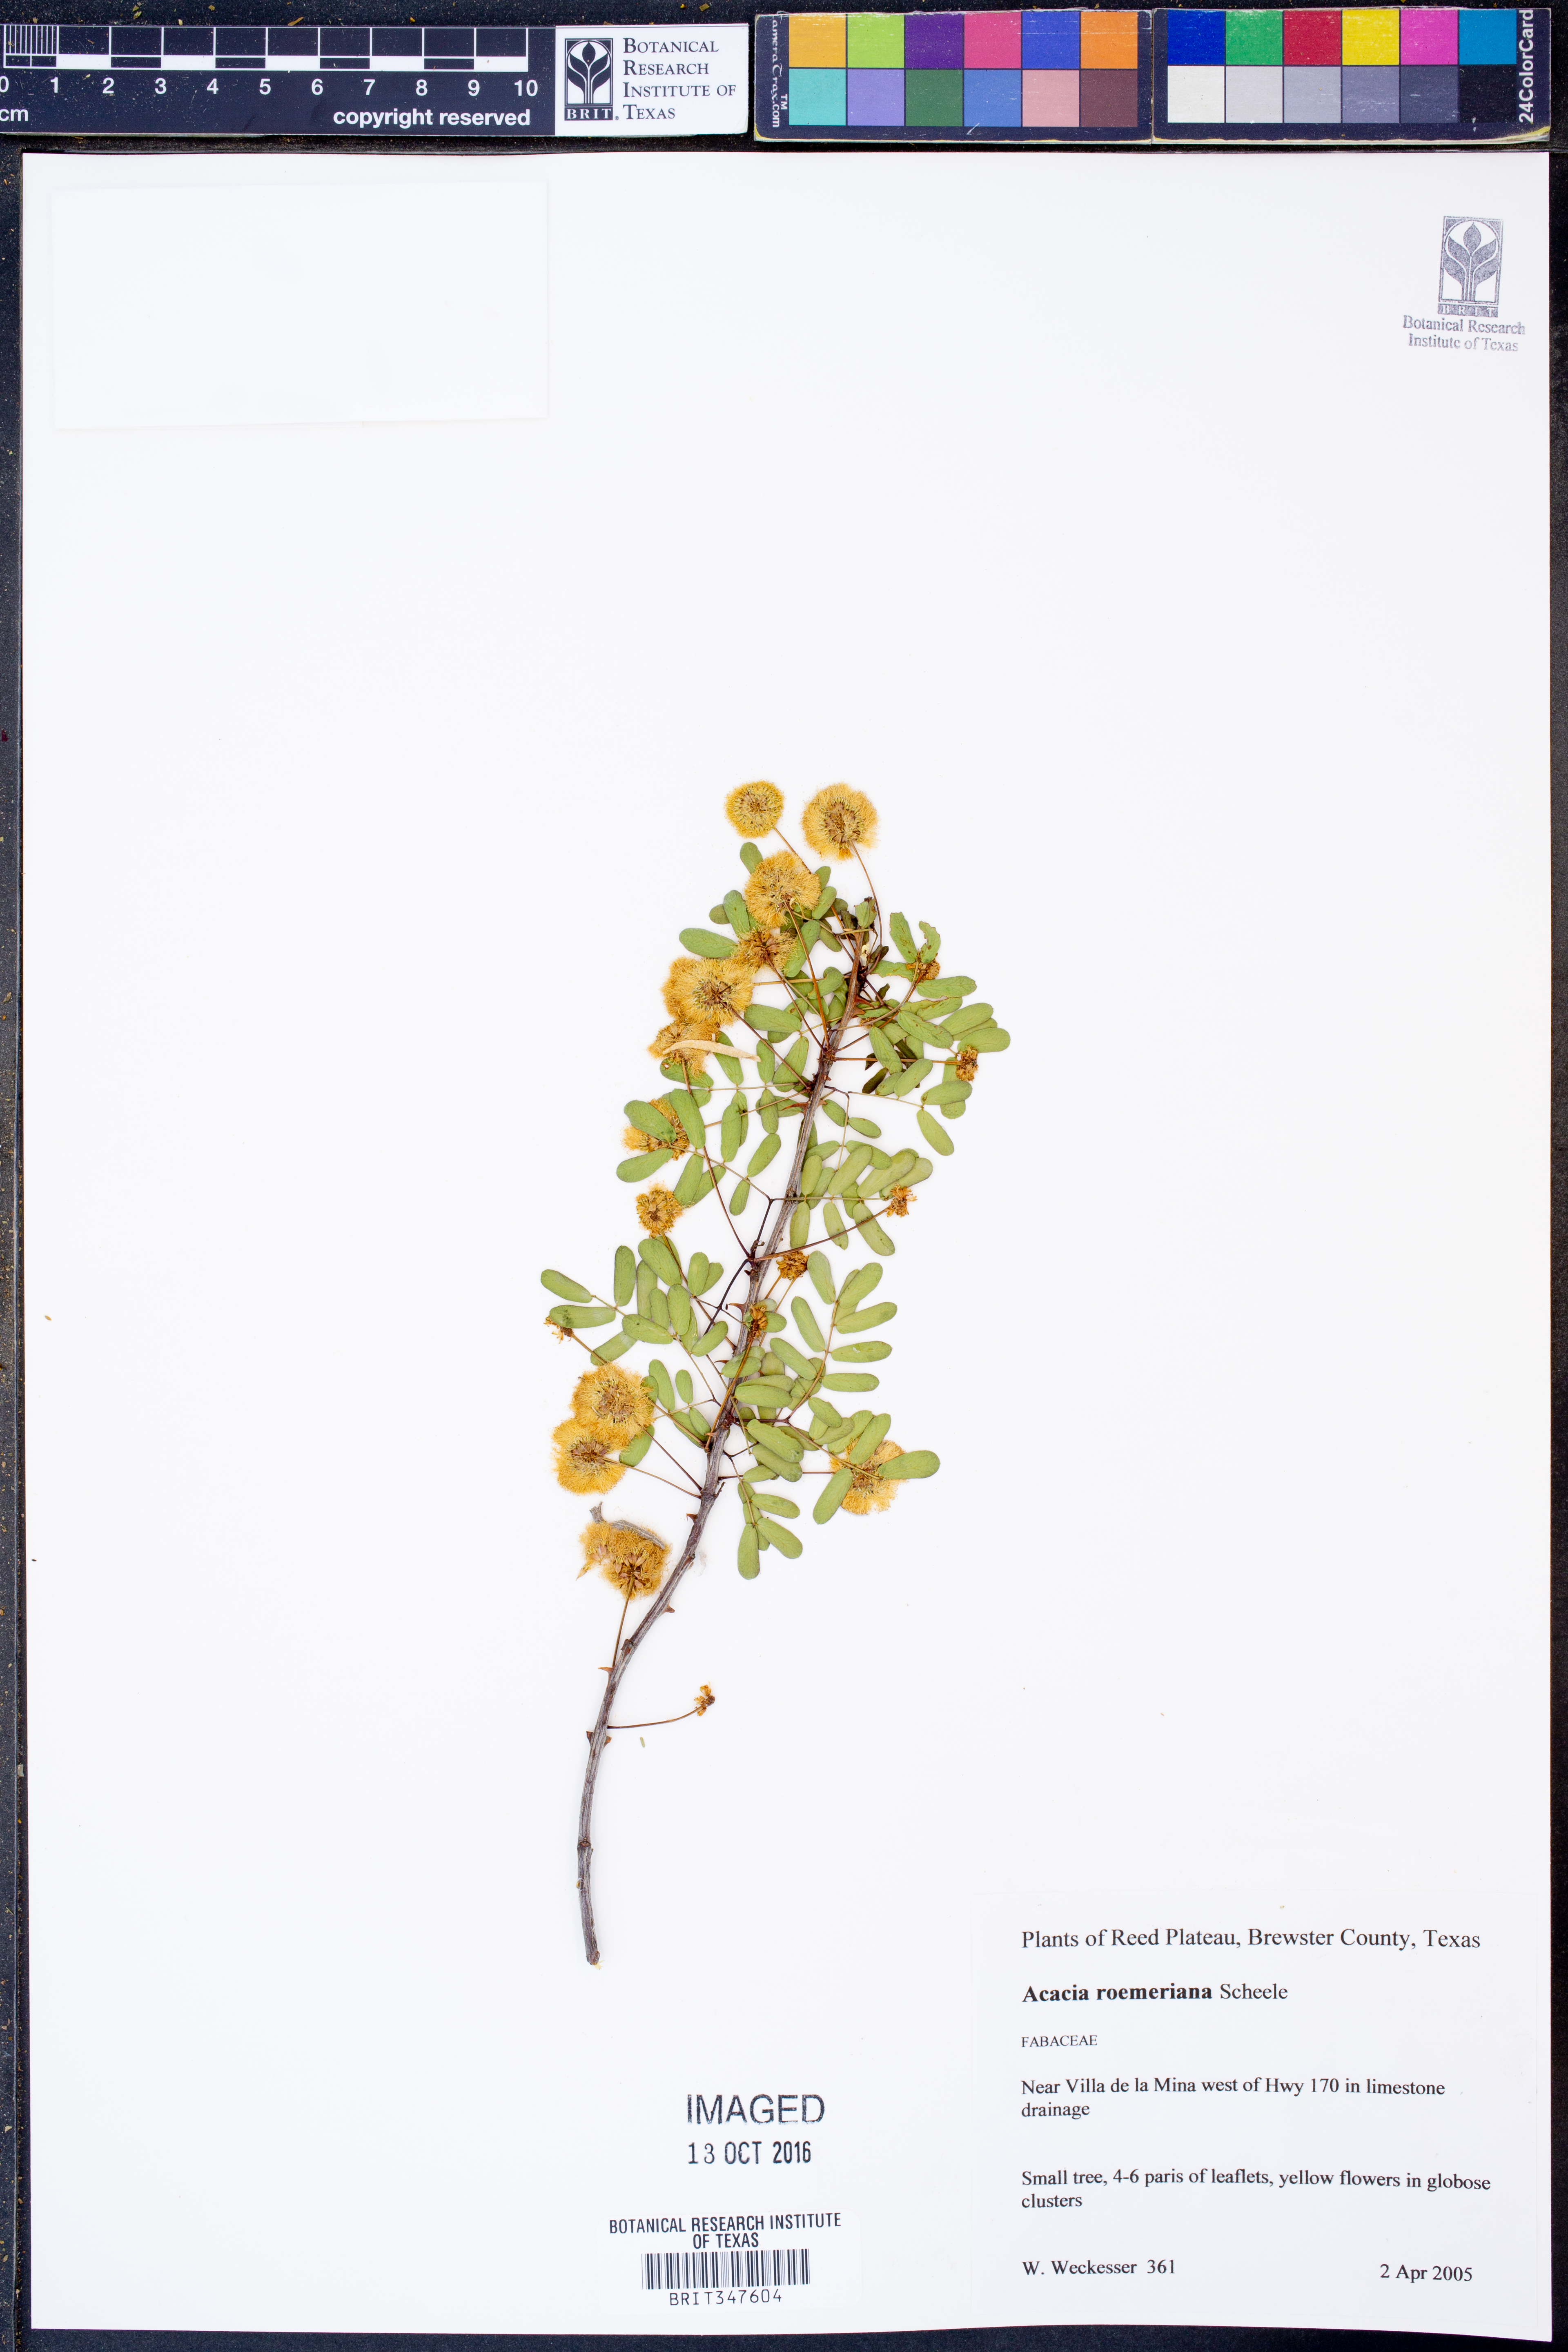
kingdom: Plantae
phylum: Tracheophyta
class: Magnoliopsida
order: Fabales
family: Fabaceae
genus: Senegalia
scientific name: Senegalia roemeriana
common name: Roemer's acacia
